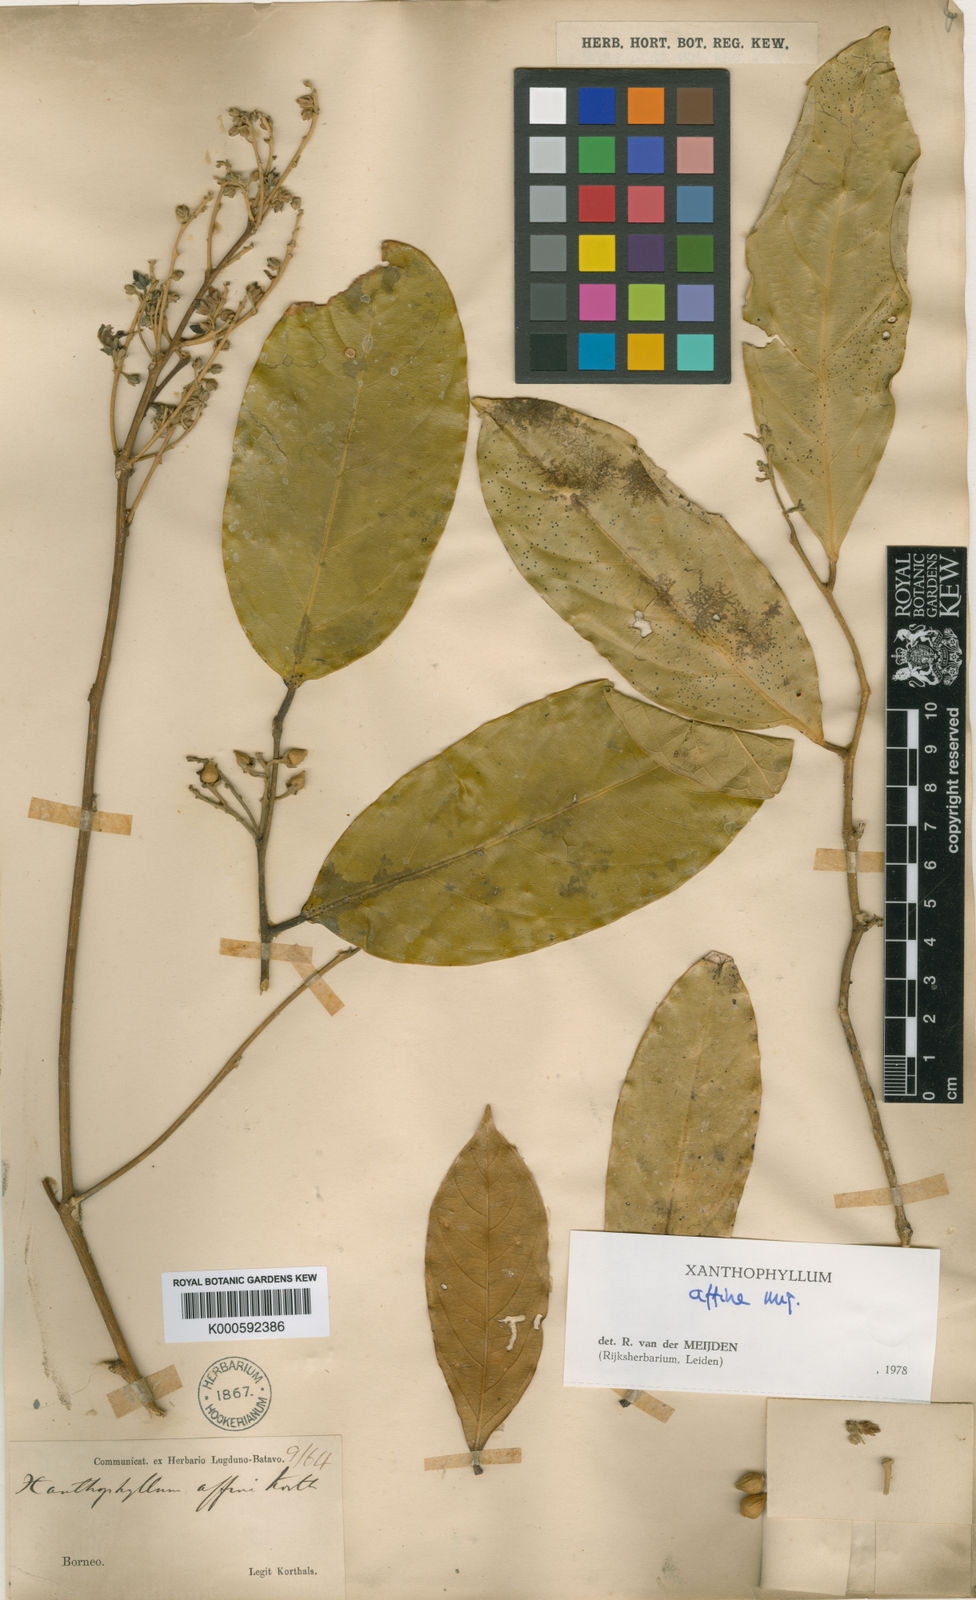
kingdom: Plantae
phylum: Tracheophyta
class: Magnoliopsida
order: Fabales
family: Polygalaceae
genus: Xanthophyllum
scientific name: Xanthophyllum flavescens
